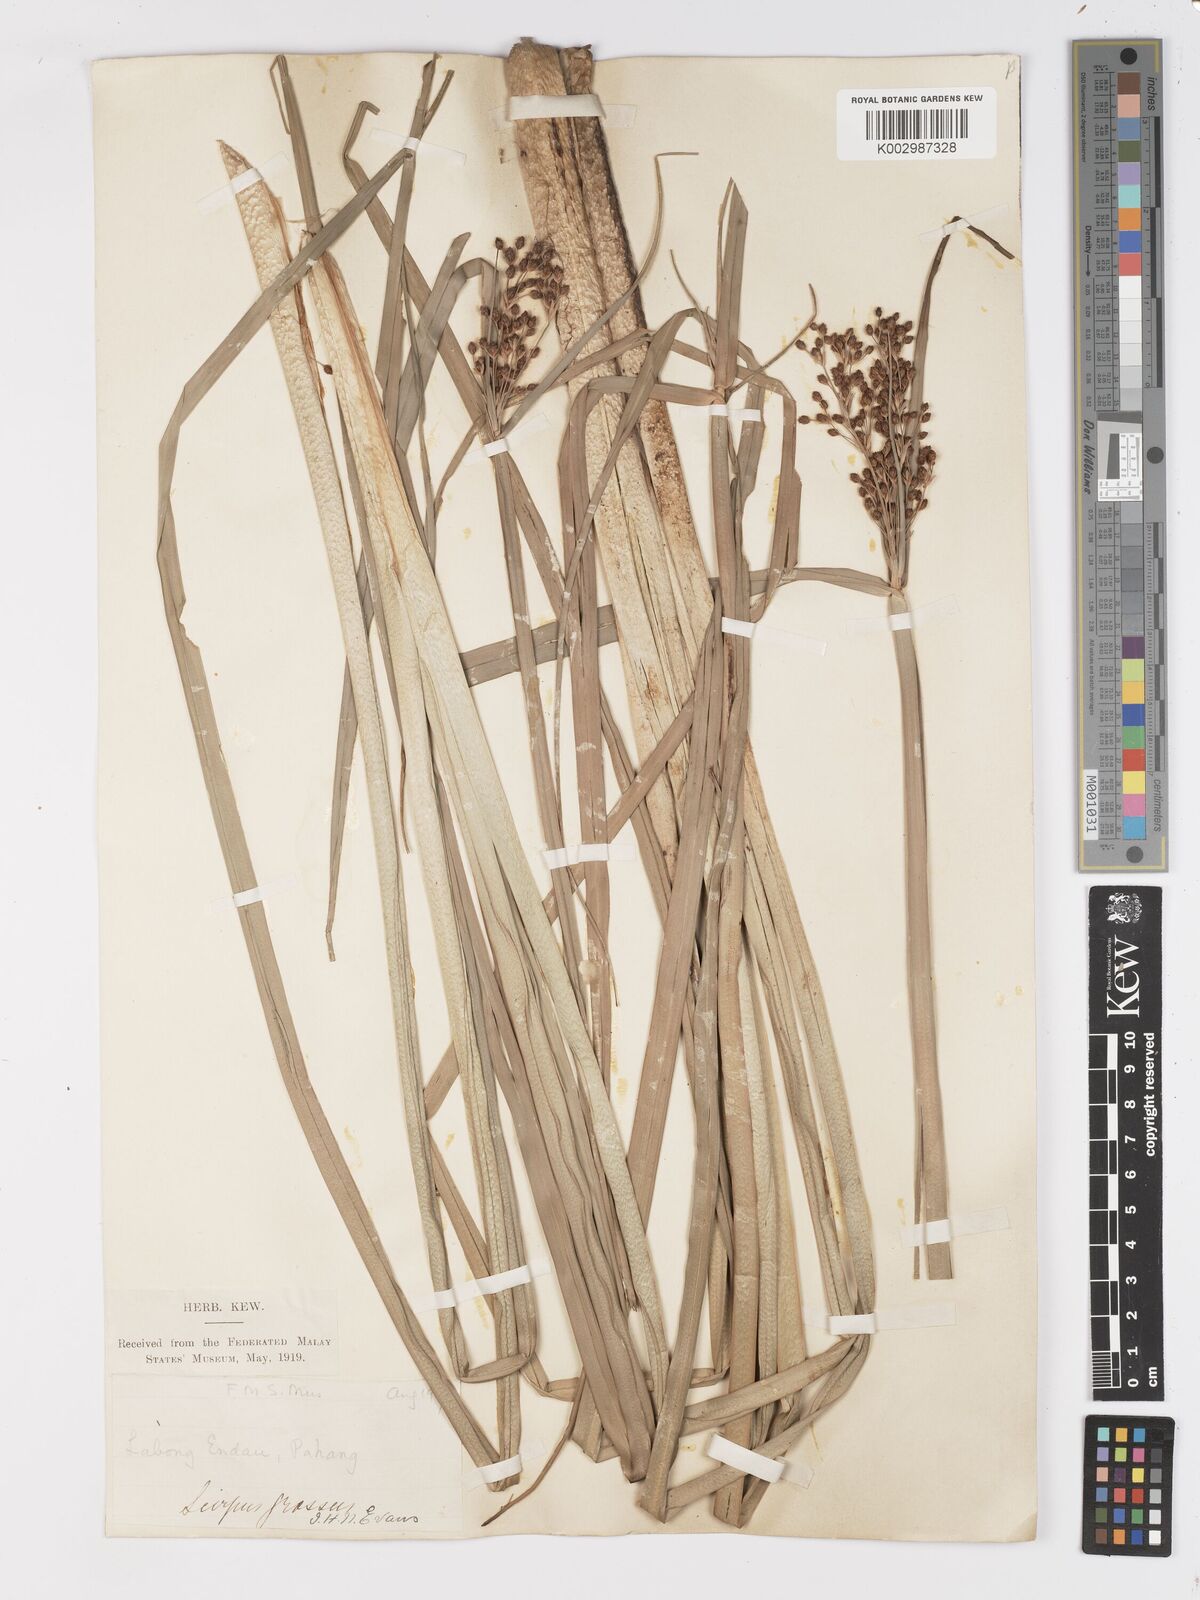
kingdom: Plantae
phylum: Tracheophyta
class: Liliopsida
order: Poales
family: Cyperaceae
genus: Actinoscirpus
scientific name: Actinoscirpus grossus
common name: Giant bur rush
